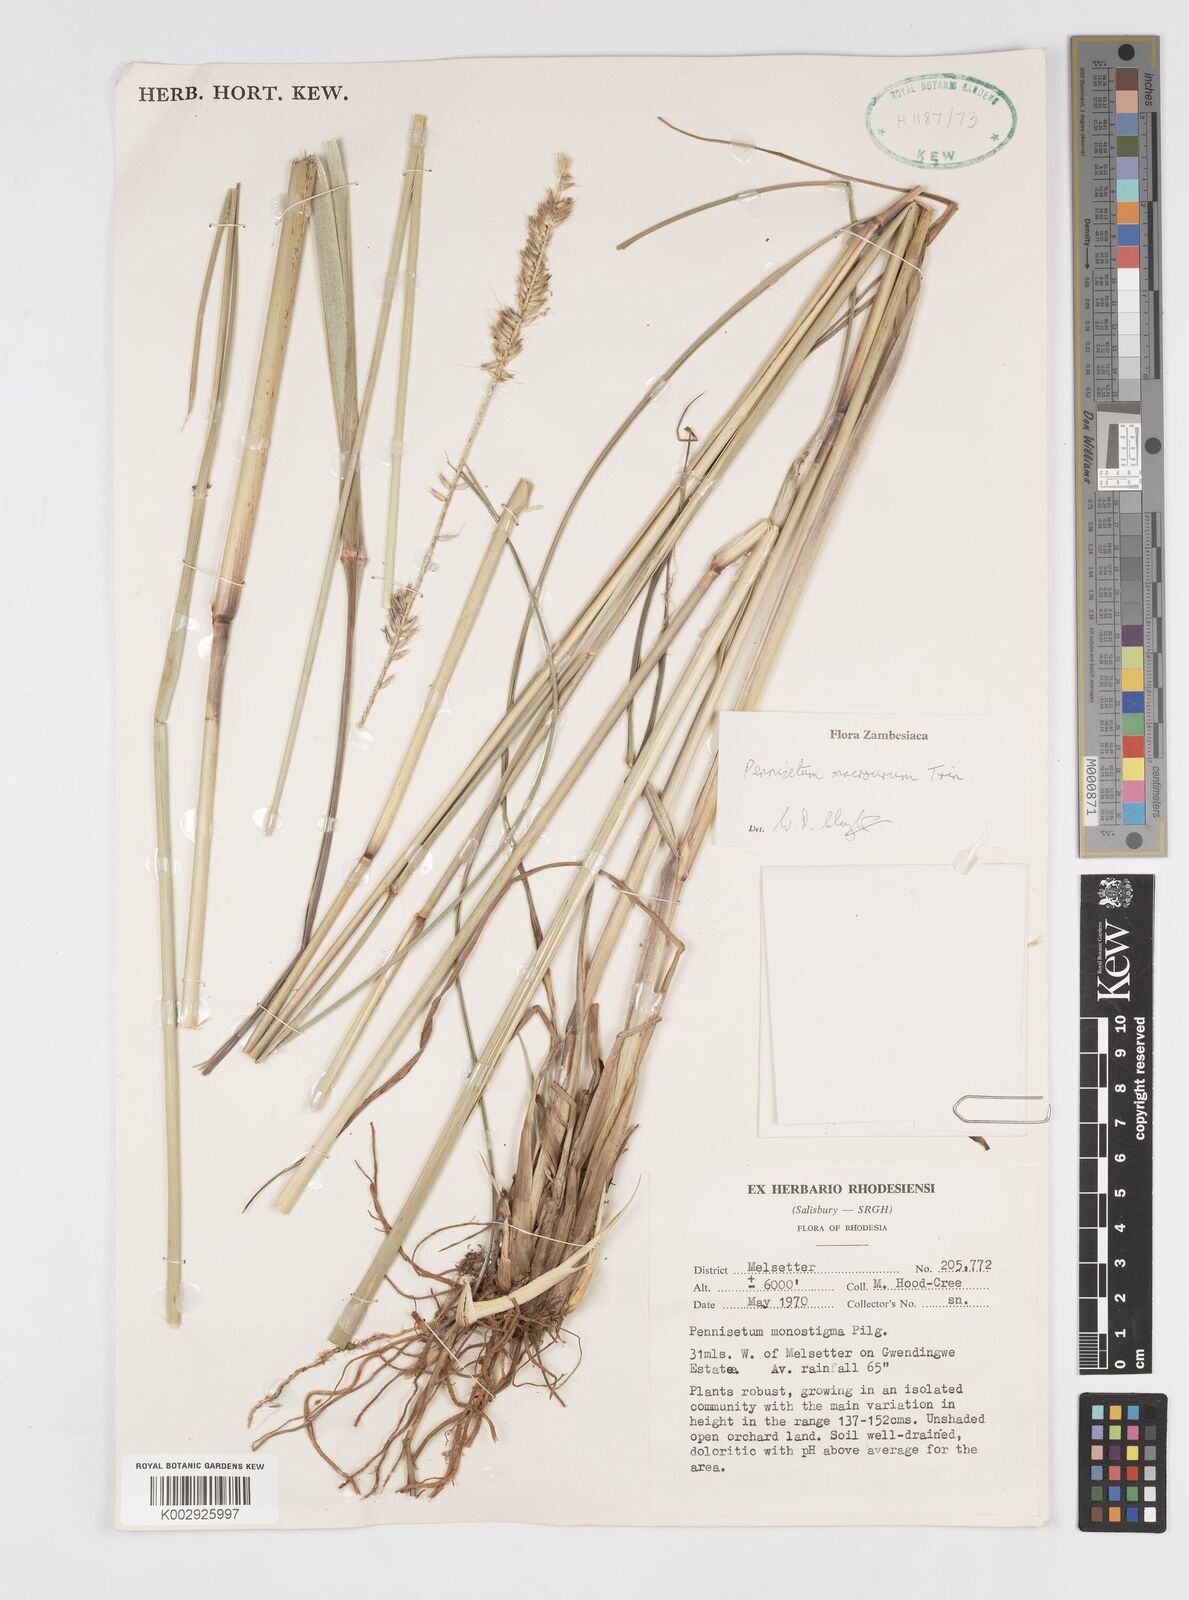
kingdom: Plantae
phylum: Tracheophyta
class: Liliopsida
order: Poales
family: Poaceae
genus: Cenchrus
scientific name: Cenchrus caudatus
